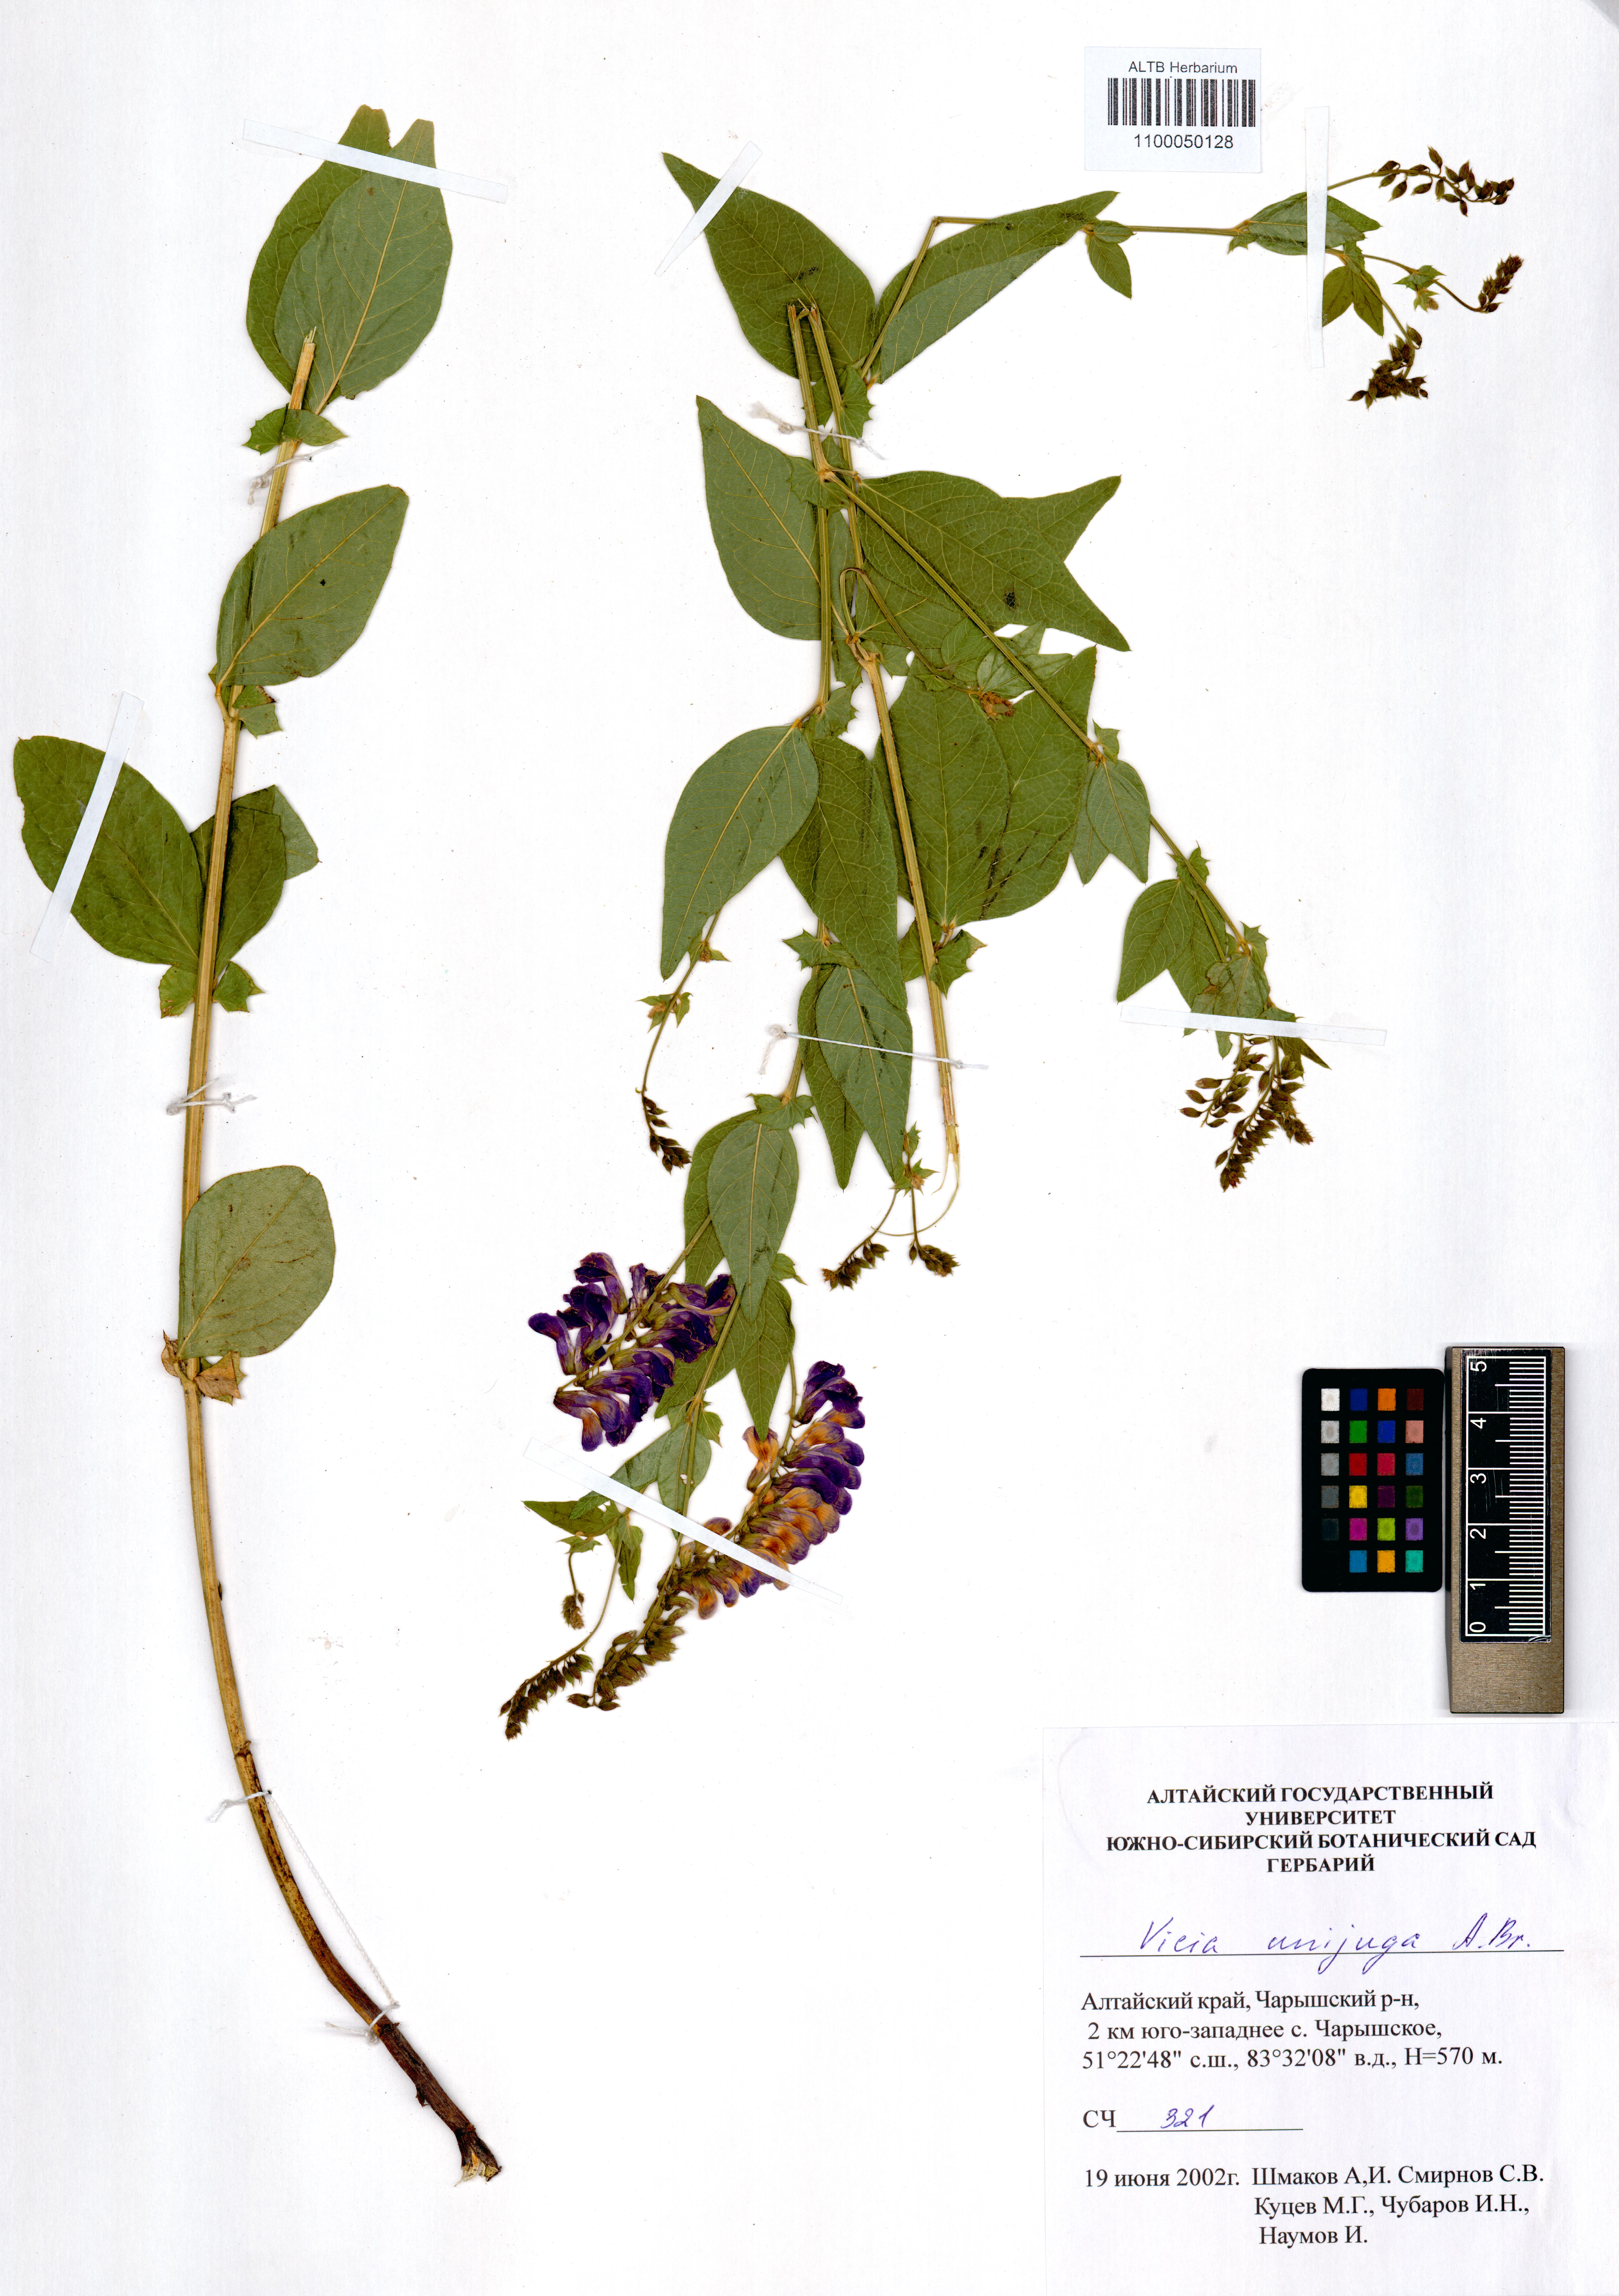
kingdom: Plantae
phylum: Tracheophyta
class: Magnoliopsida
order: Fabales
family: Fabaceae
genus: Vicia
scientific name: Vicia unijuga
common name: Two-leaf vetch
